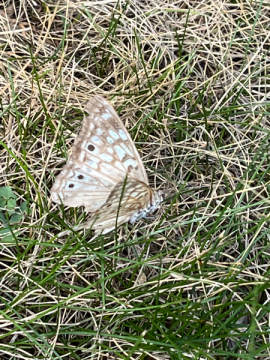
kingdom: Animalia
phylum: Arthropoda
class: Insecta
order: Lepidoptera
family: Nymphalidae
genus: Asterocampa
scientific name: Asterocampa celtis
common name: Hackberry Emperor
